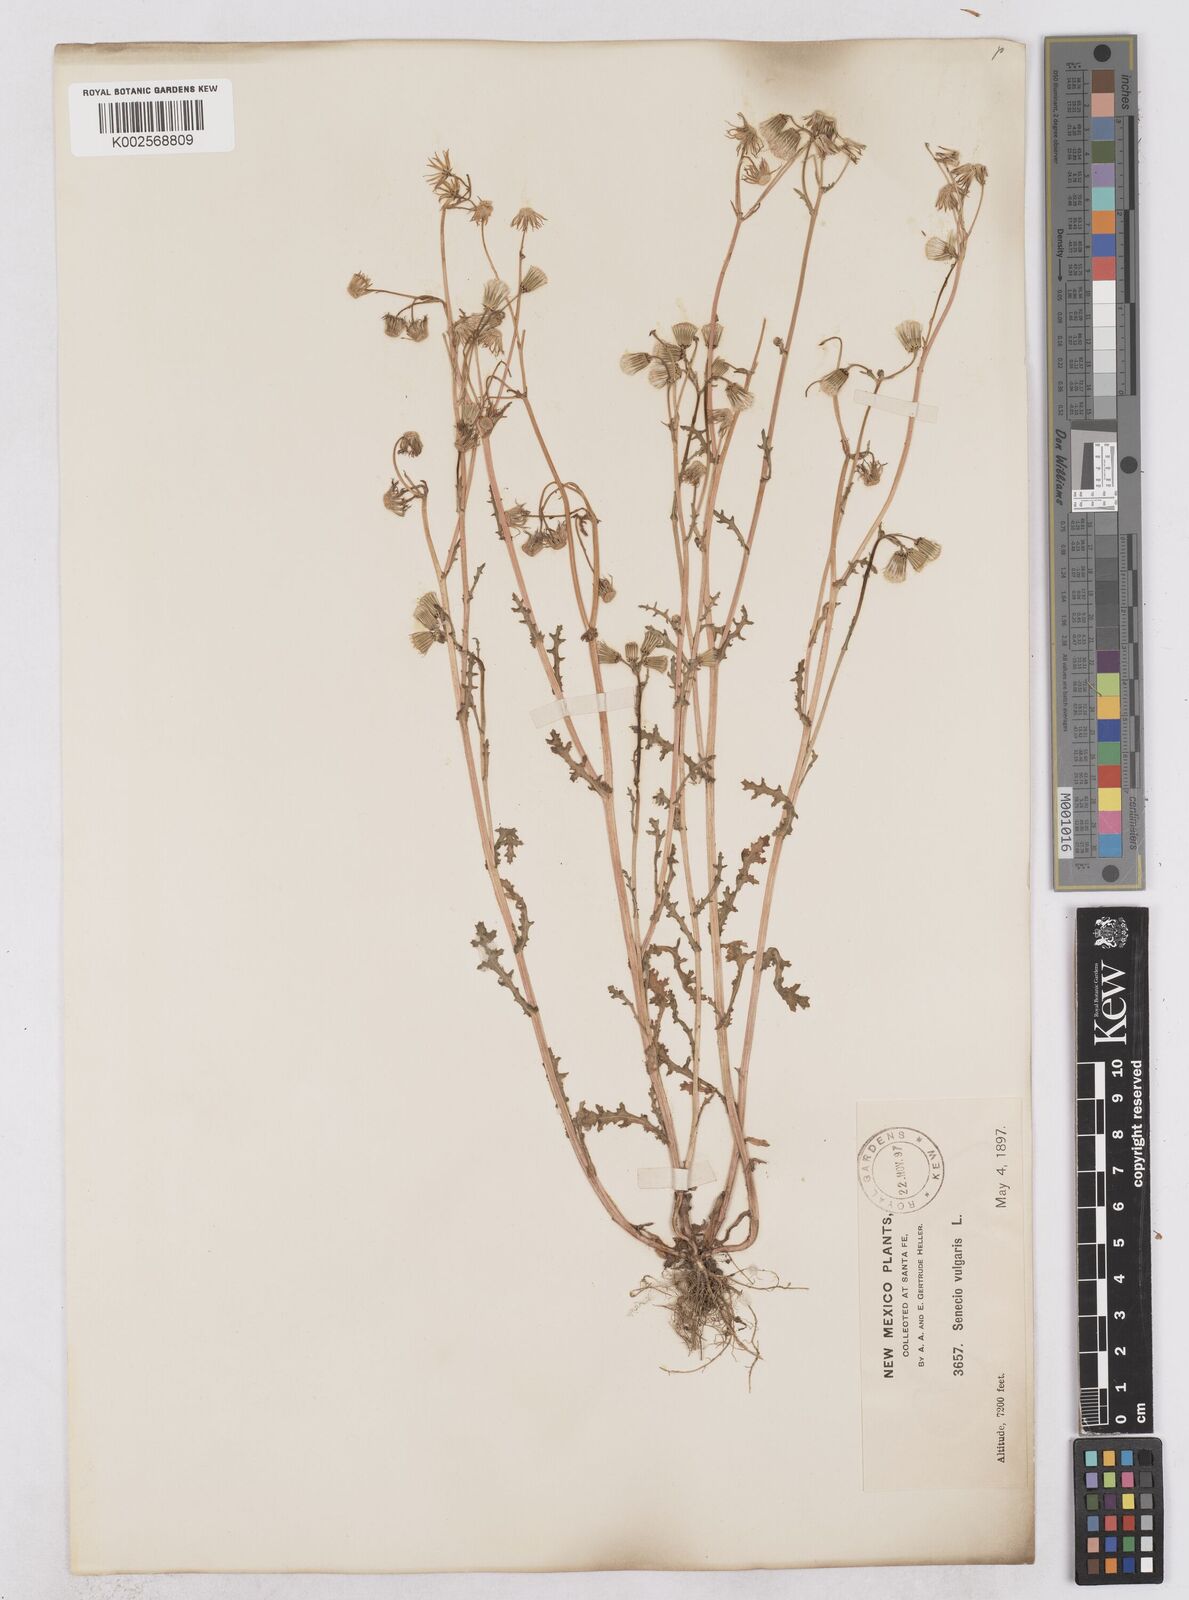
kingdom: Plantae
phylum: Tracheophyta
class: Magnoliopsida
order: Asterales
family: Asteraceae
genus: Senecio
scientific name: Senecio vulgaris
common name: Old-man-in-the-spring
